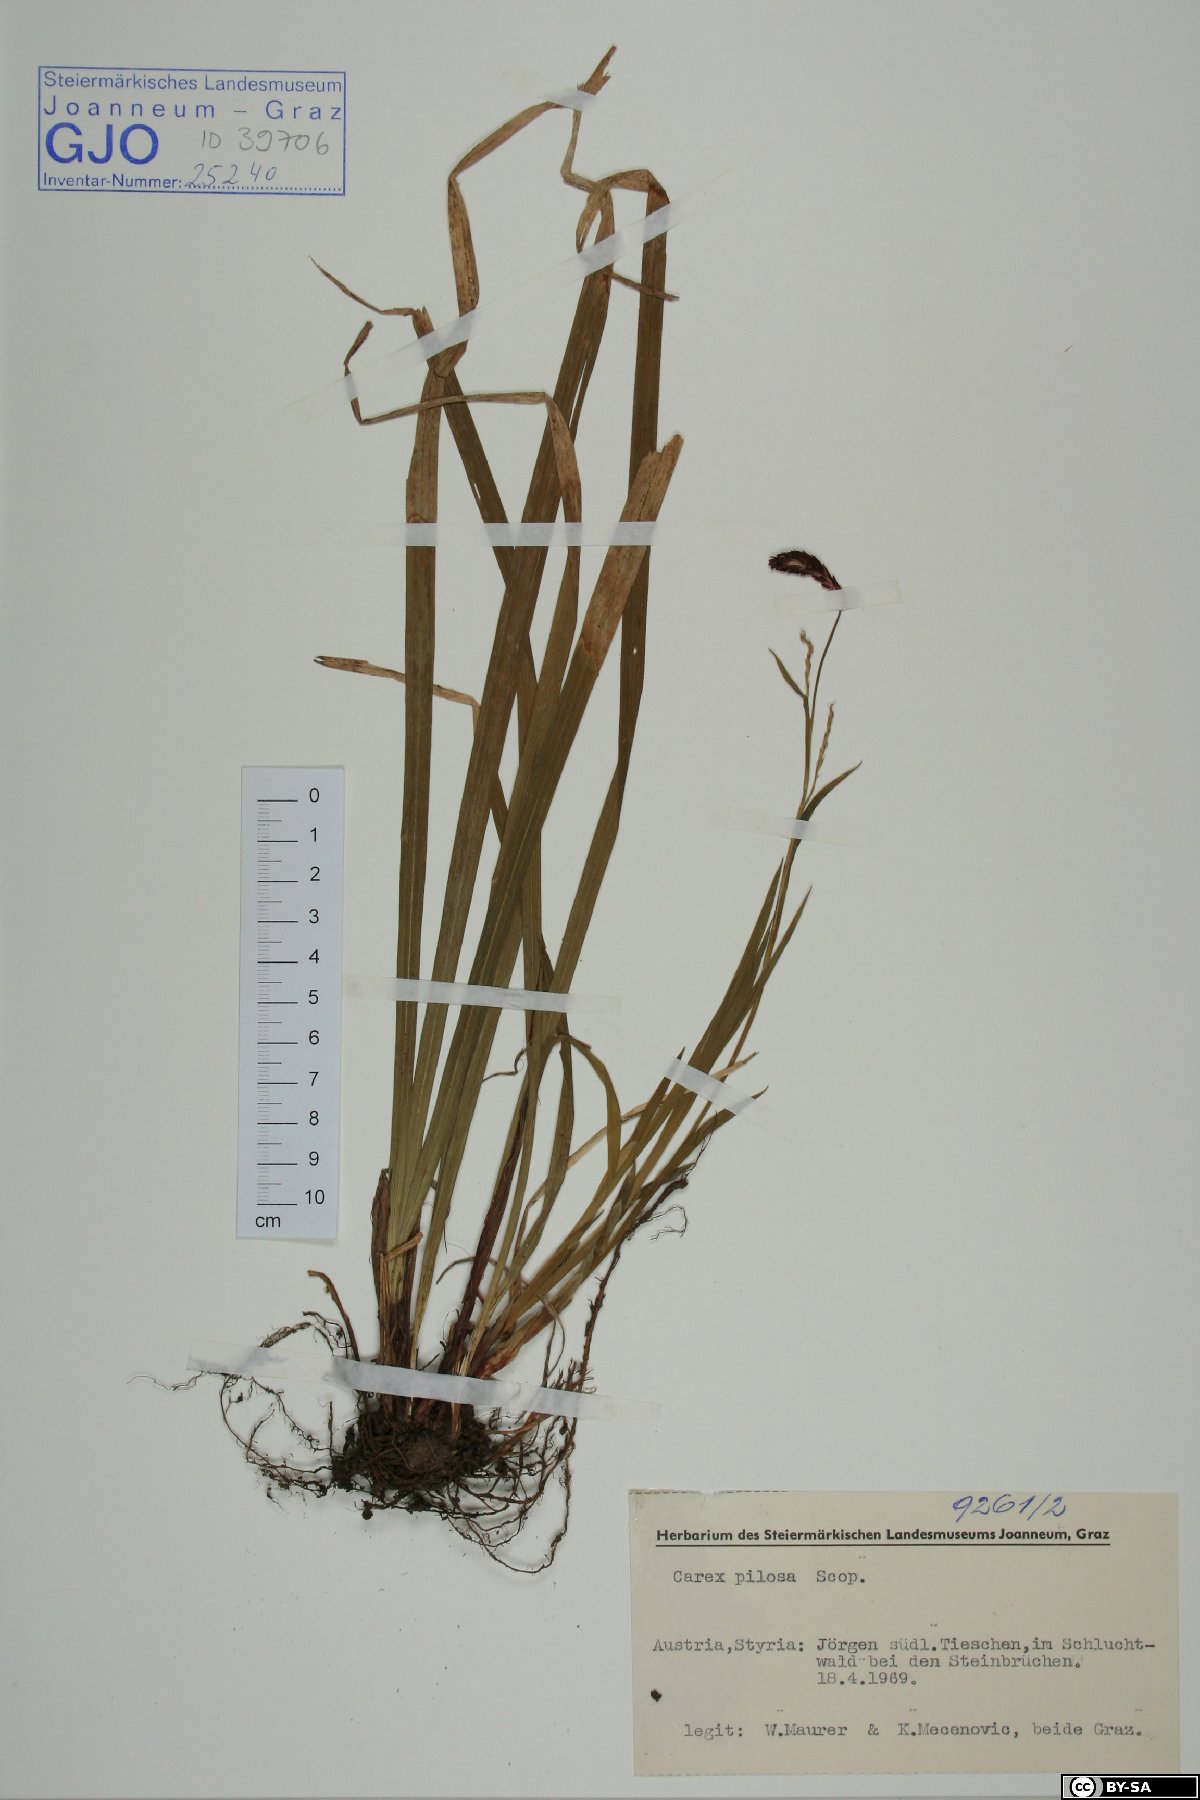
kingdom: Plantae
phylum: Tracheophyta
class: Liliopsida
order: Poales
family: Cyperaceae
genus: Carex
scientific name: Carex pilosa
